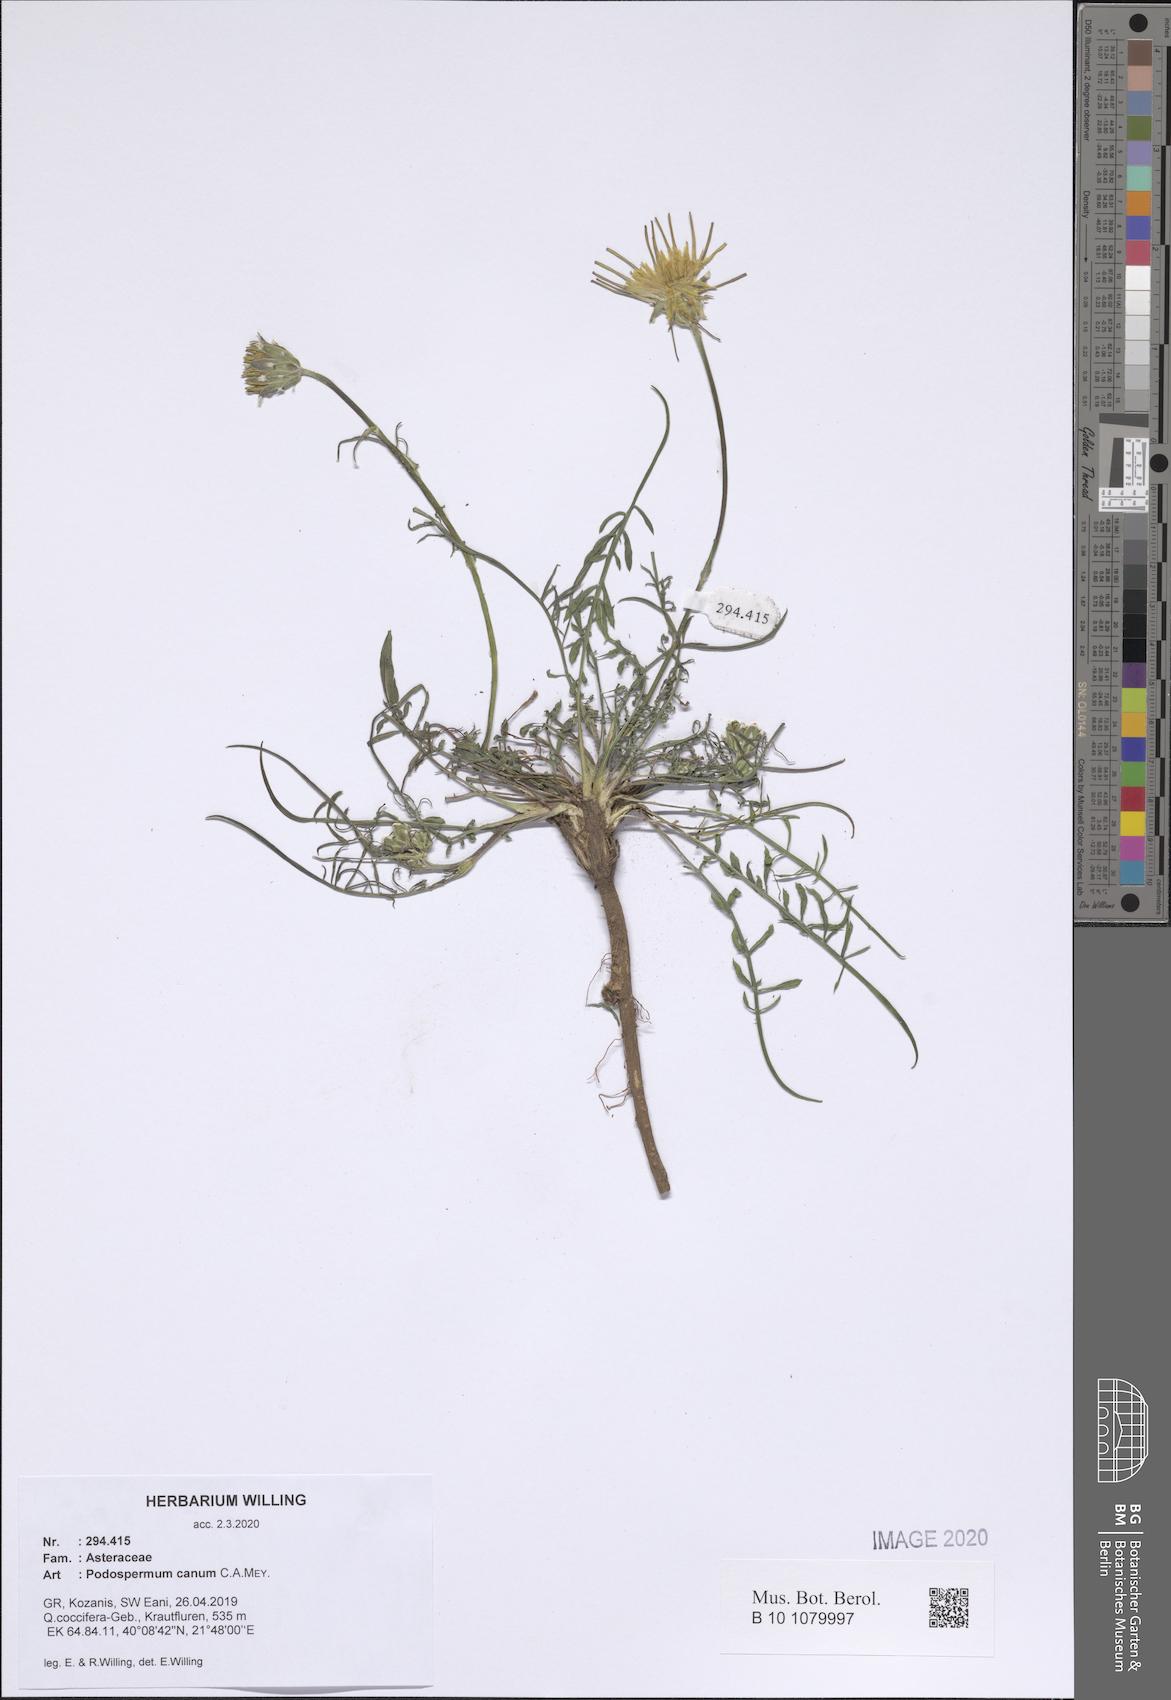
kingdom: Plantae
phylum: Tracheophyta
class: Magnoliopsida
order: Asterales
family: Asteraceae
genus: Scorzonera
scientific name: Scorzonera cana
